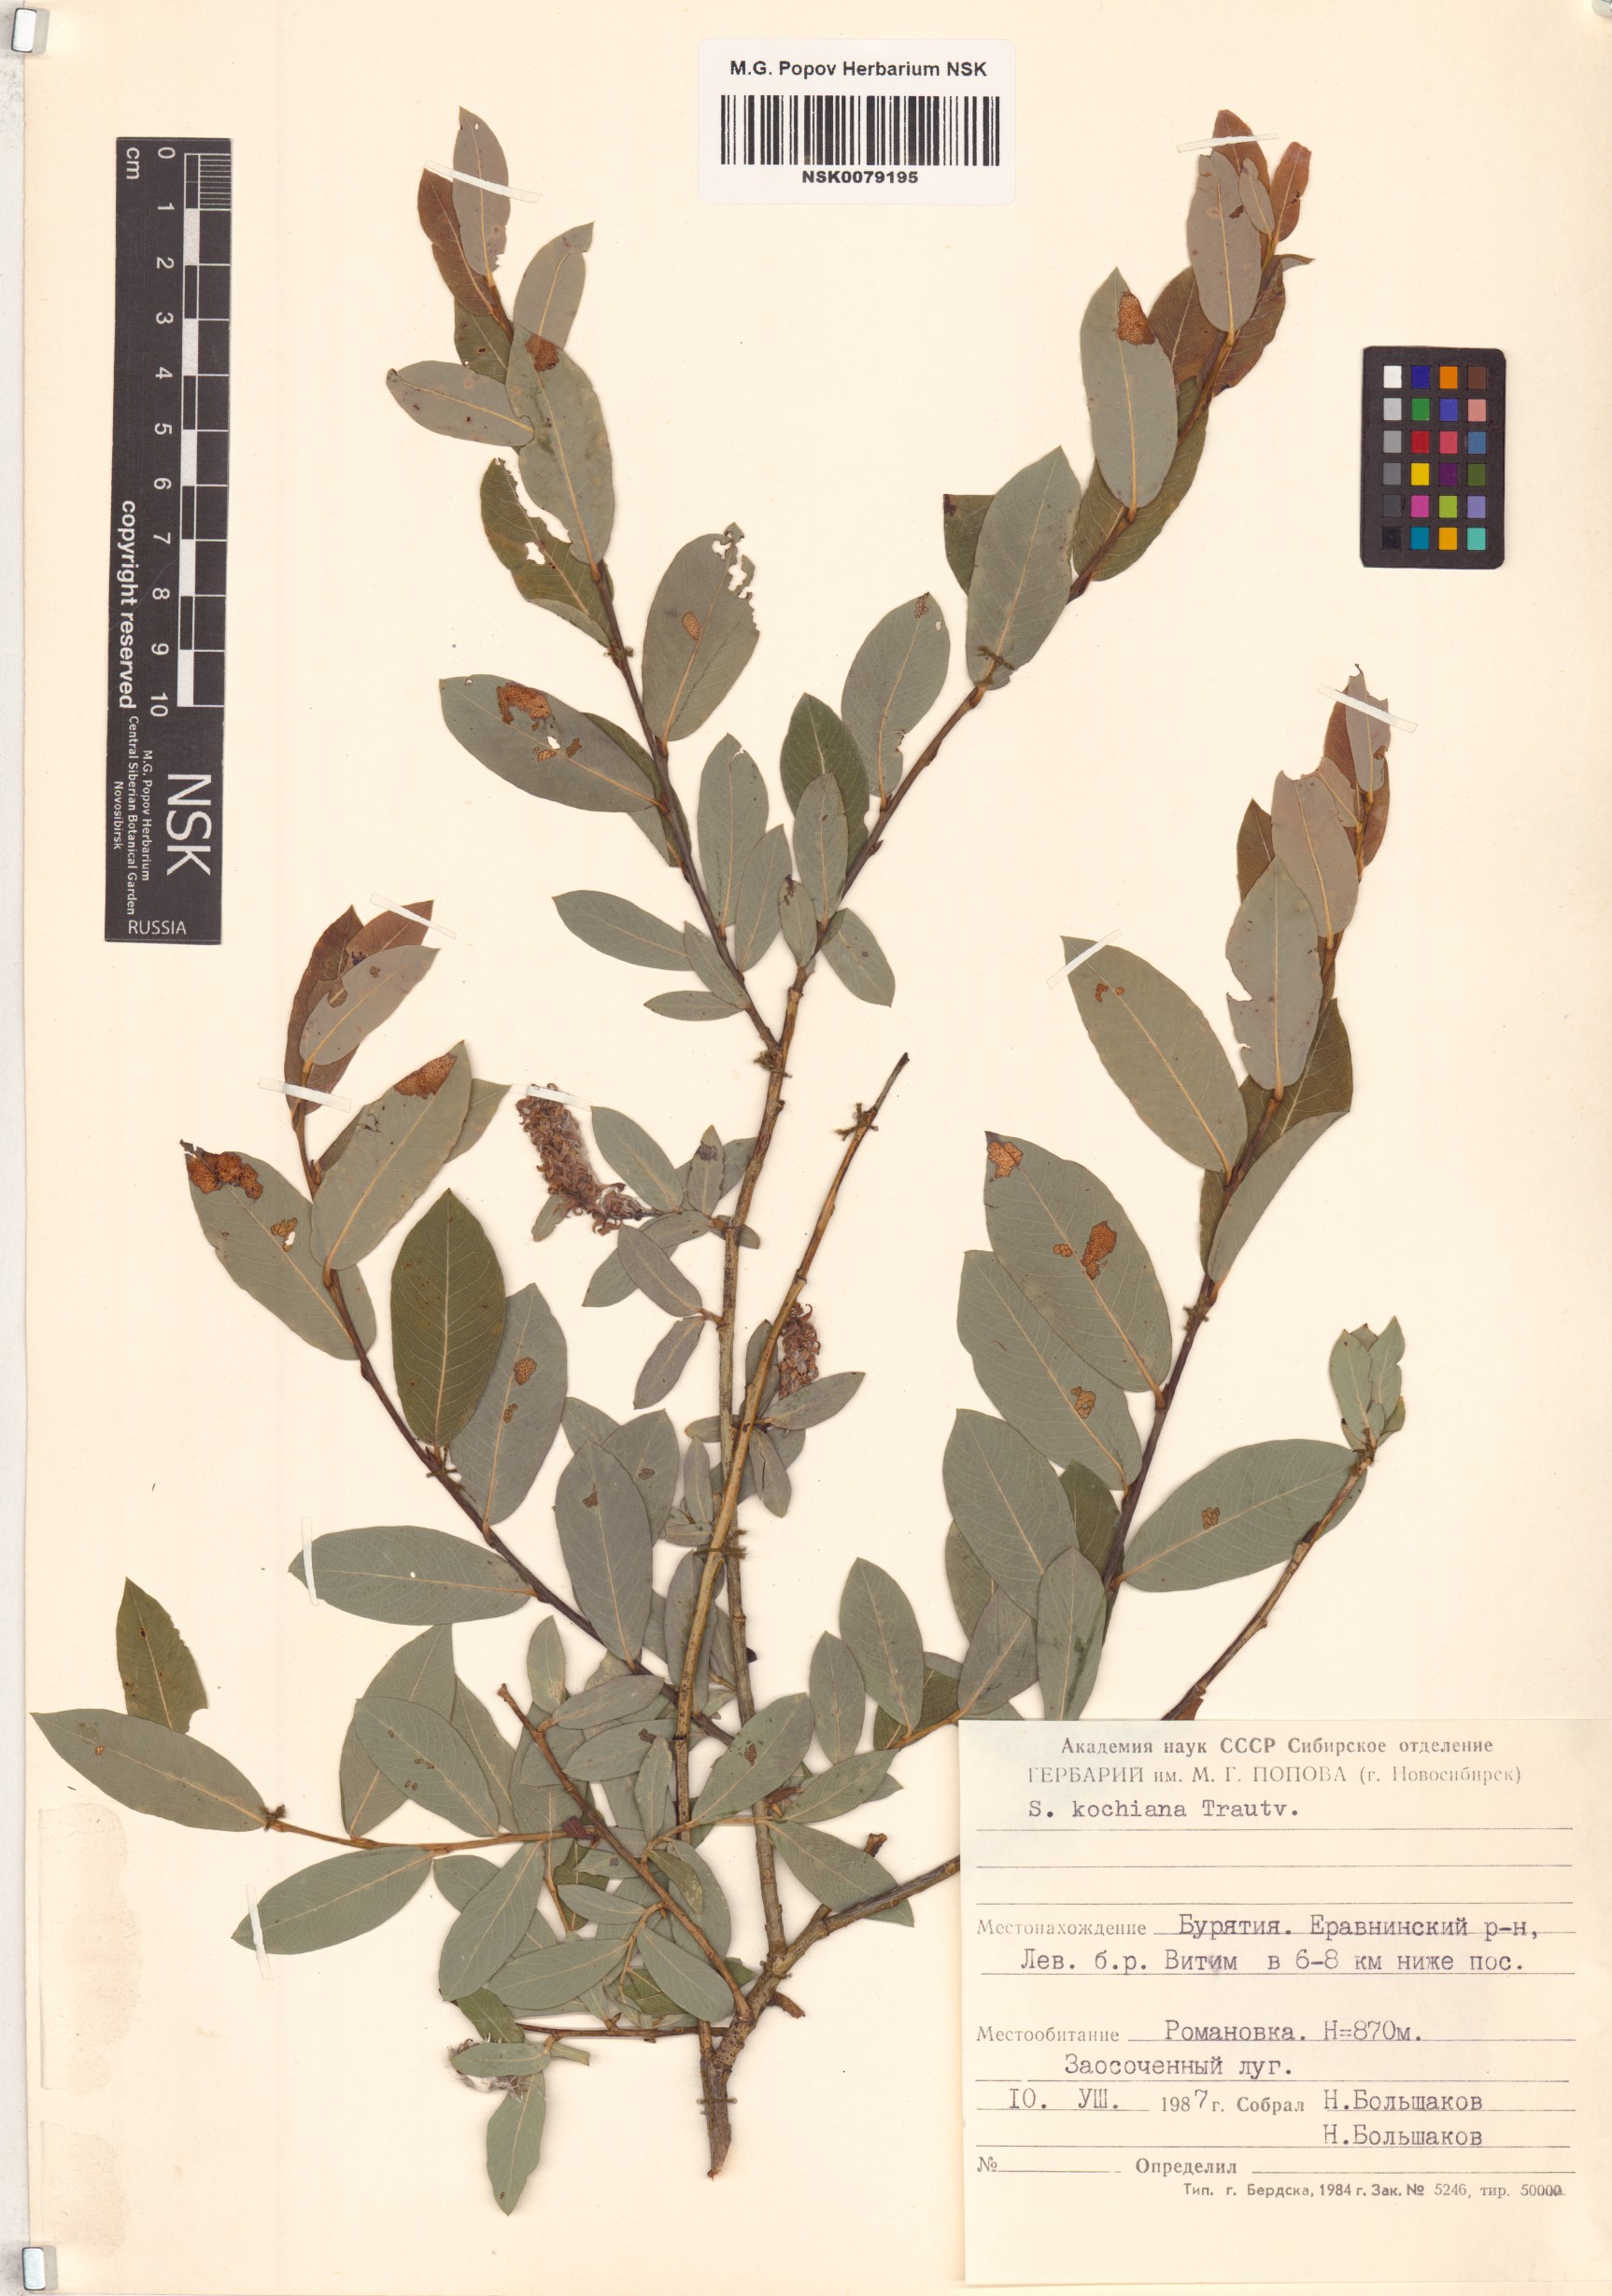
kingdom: Plantae
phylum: Tracheophyta
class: Magnoliopsida
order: Malpighiales
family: Salicaceae
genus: Salix
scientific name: Salix kochiana
